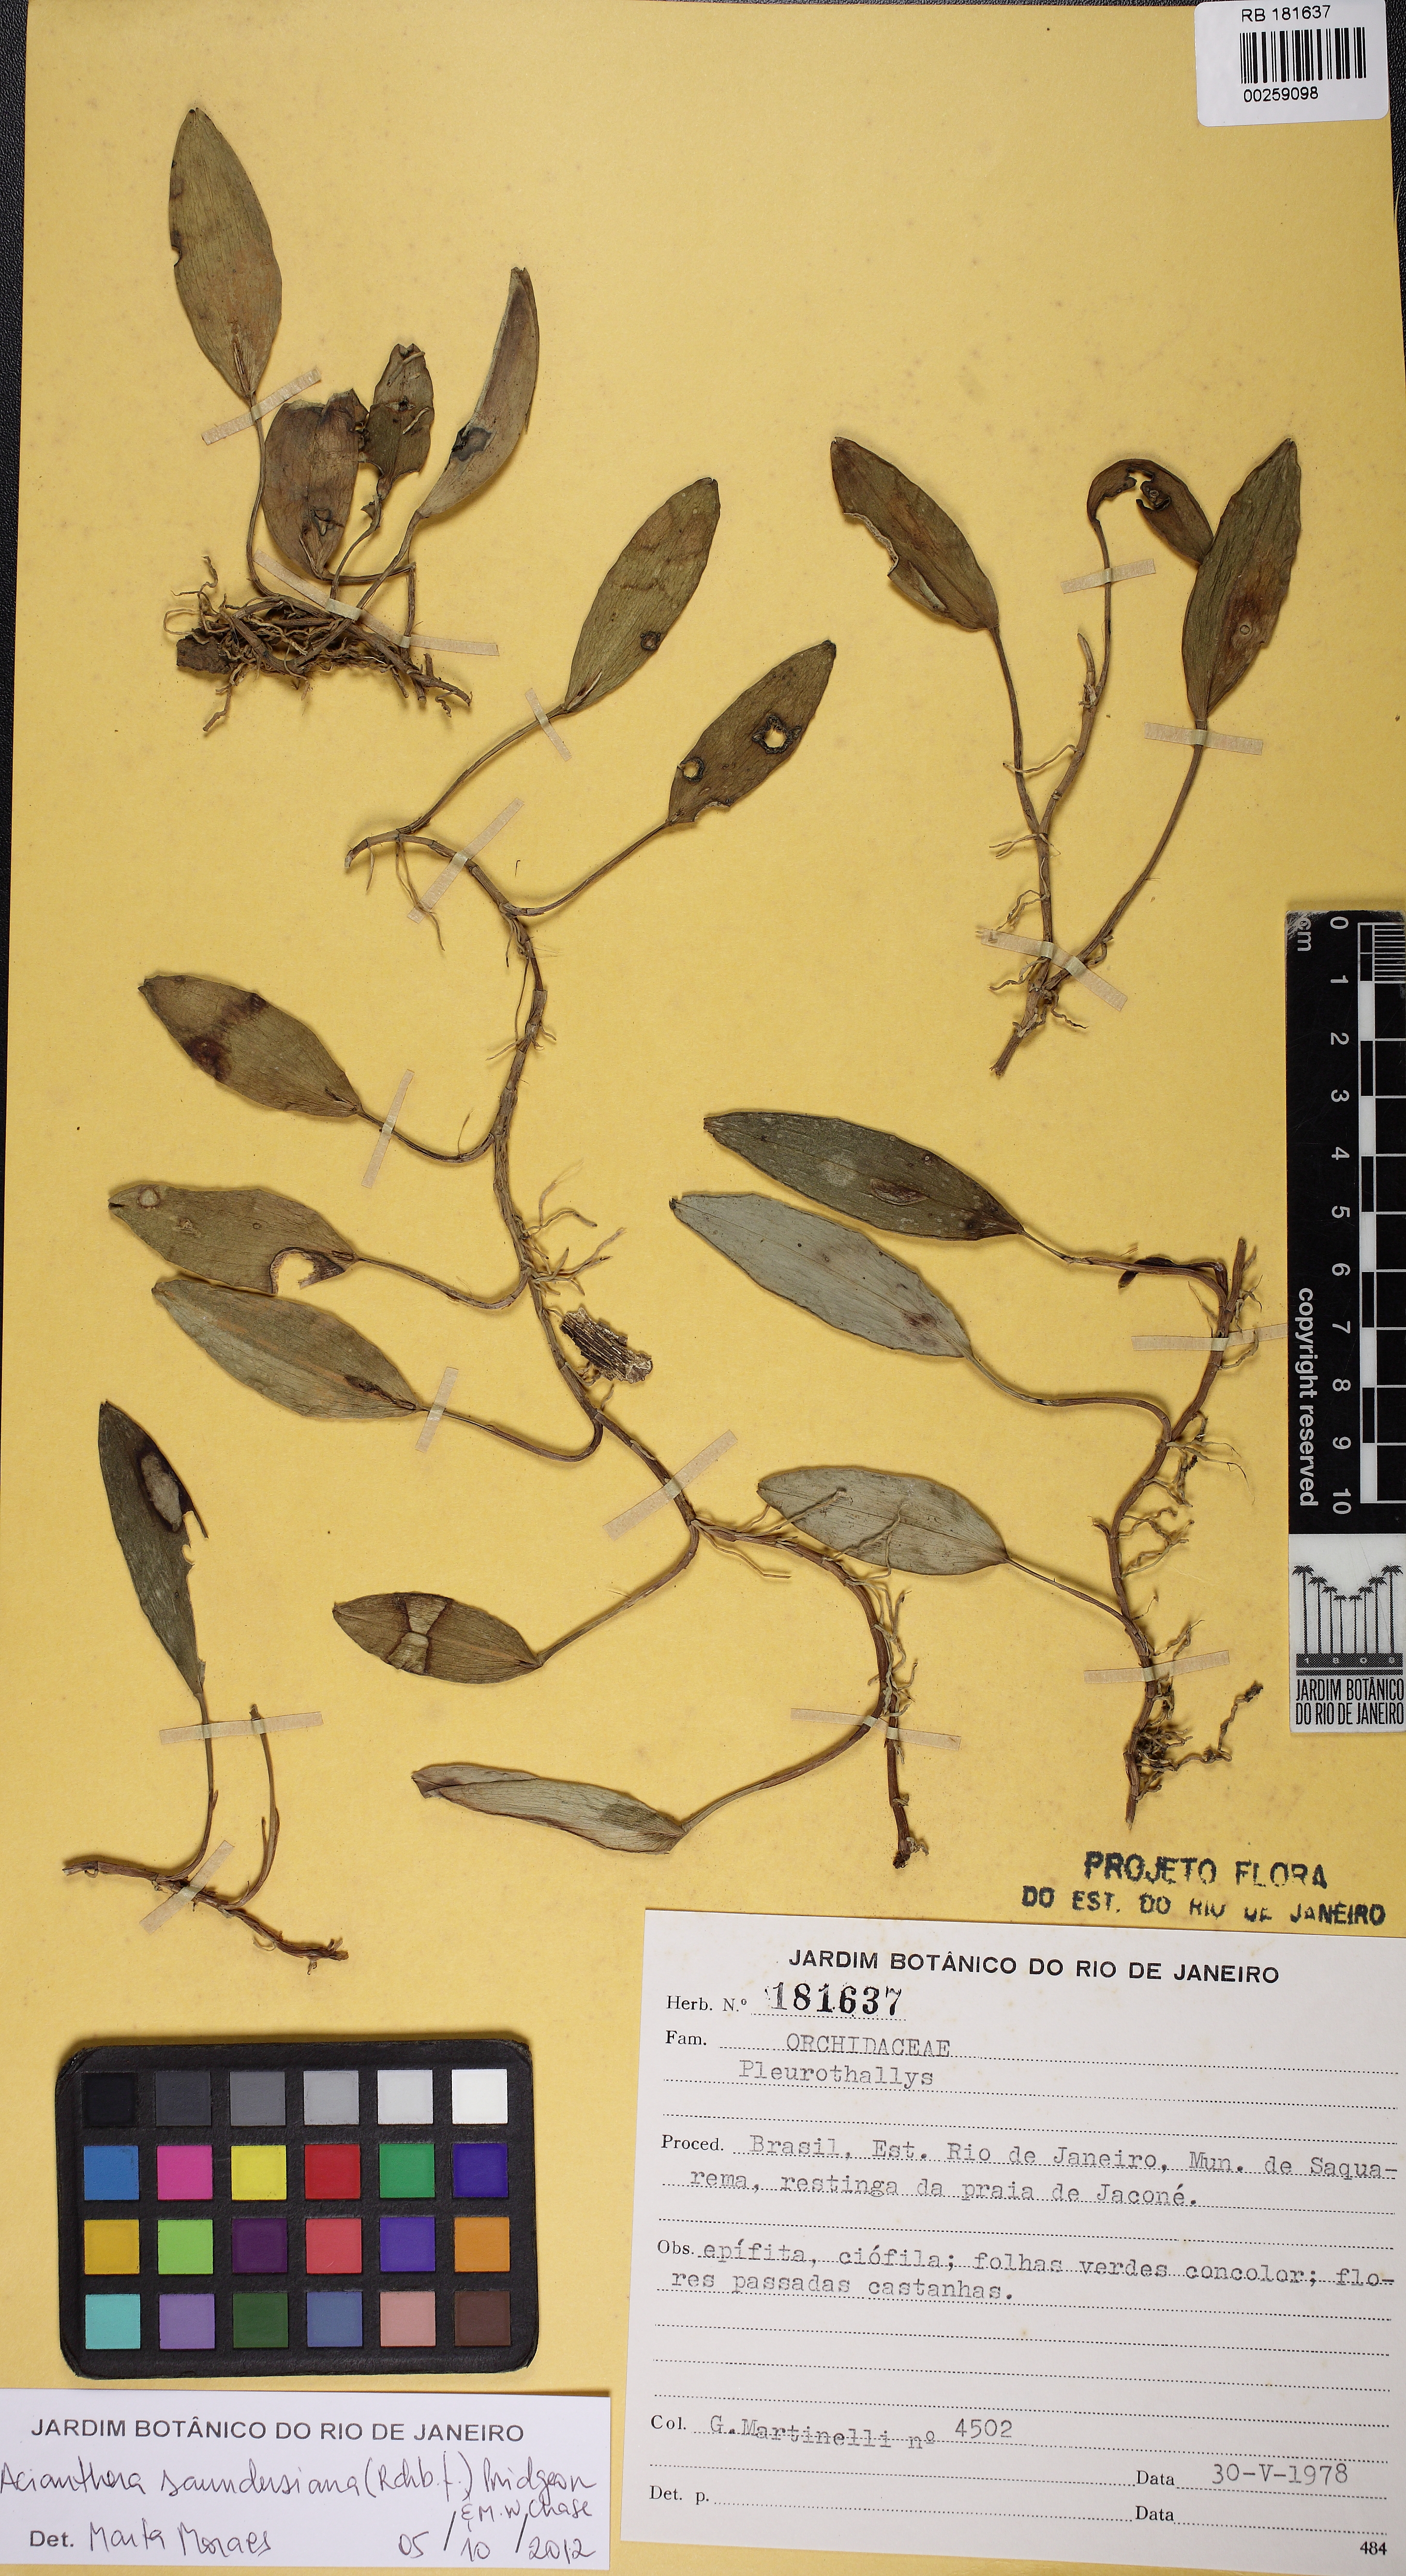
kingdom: Plantae
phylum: Tracheophyta
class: Liliopsida
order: Asparagales
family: Orchidaceae
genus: Acianthera
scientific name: Acianthera saundersiana
